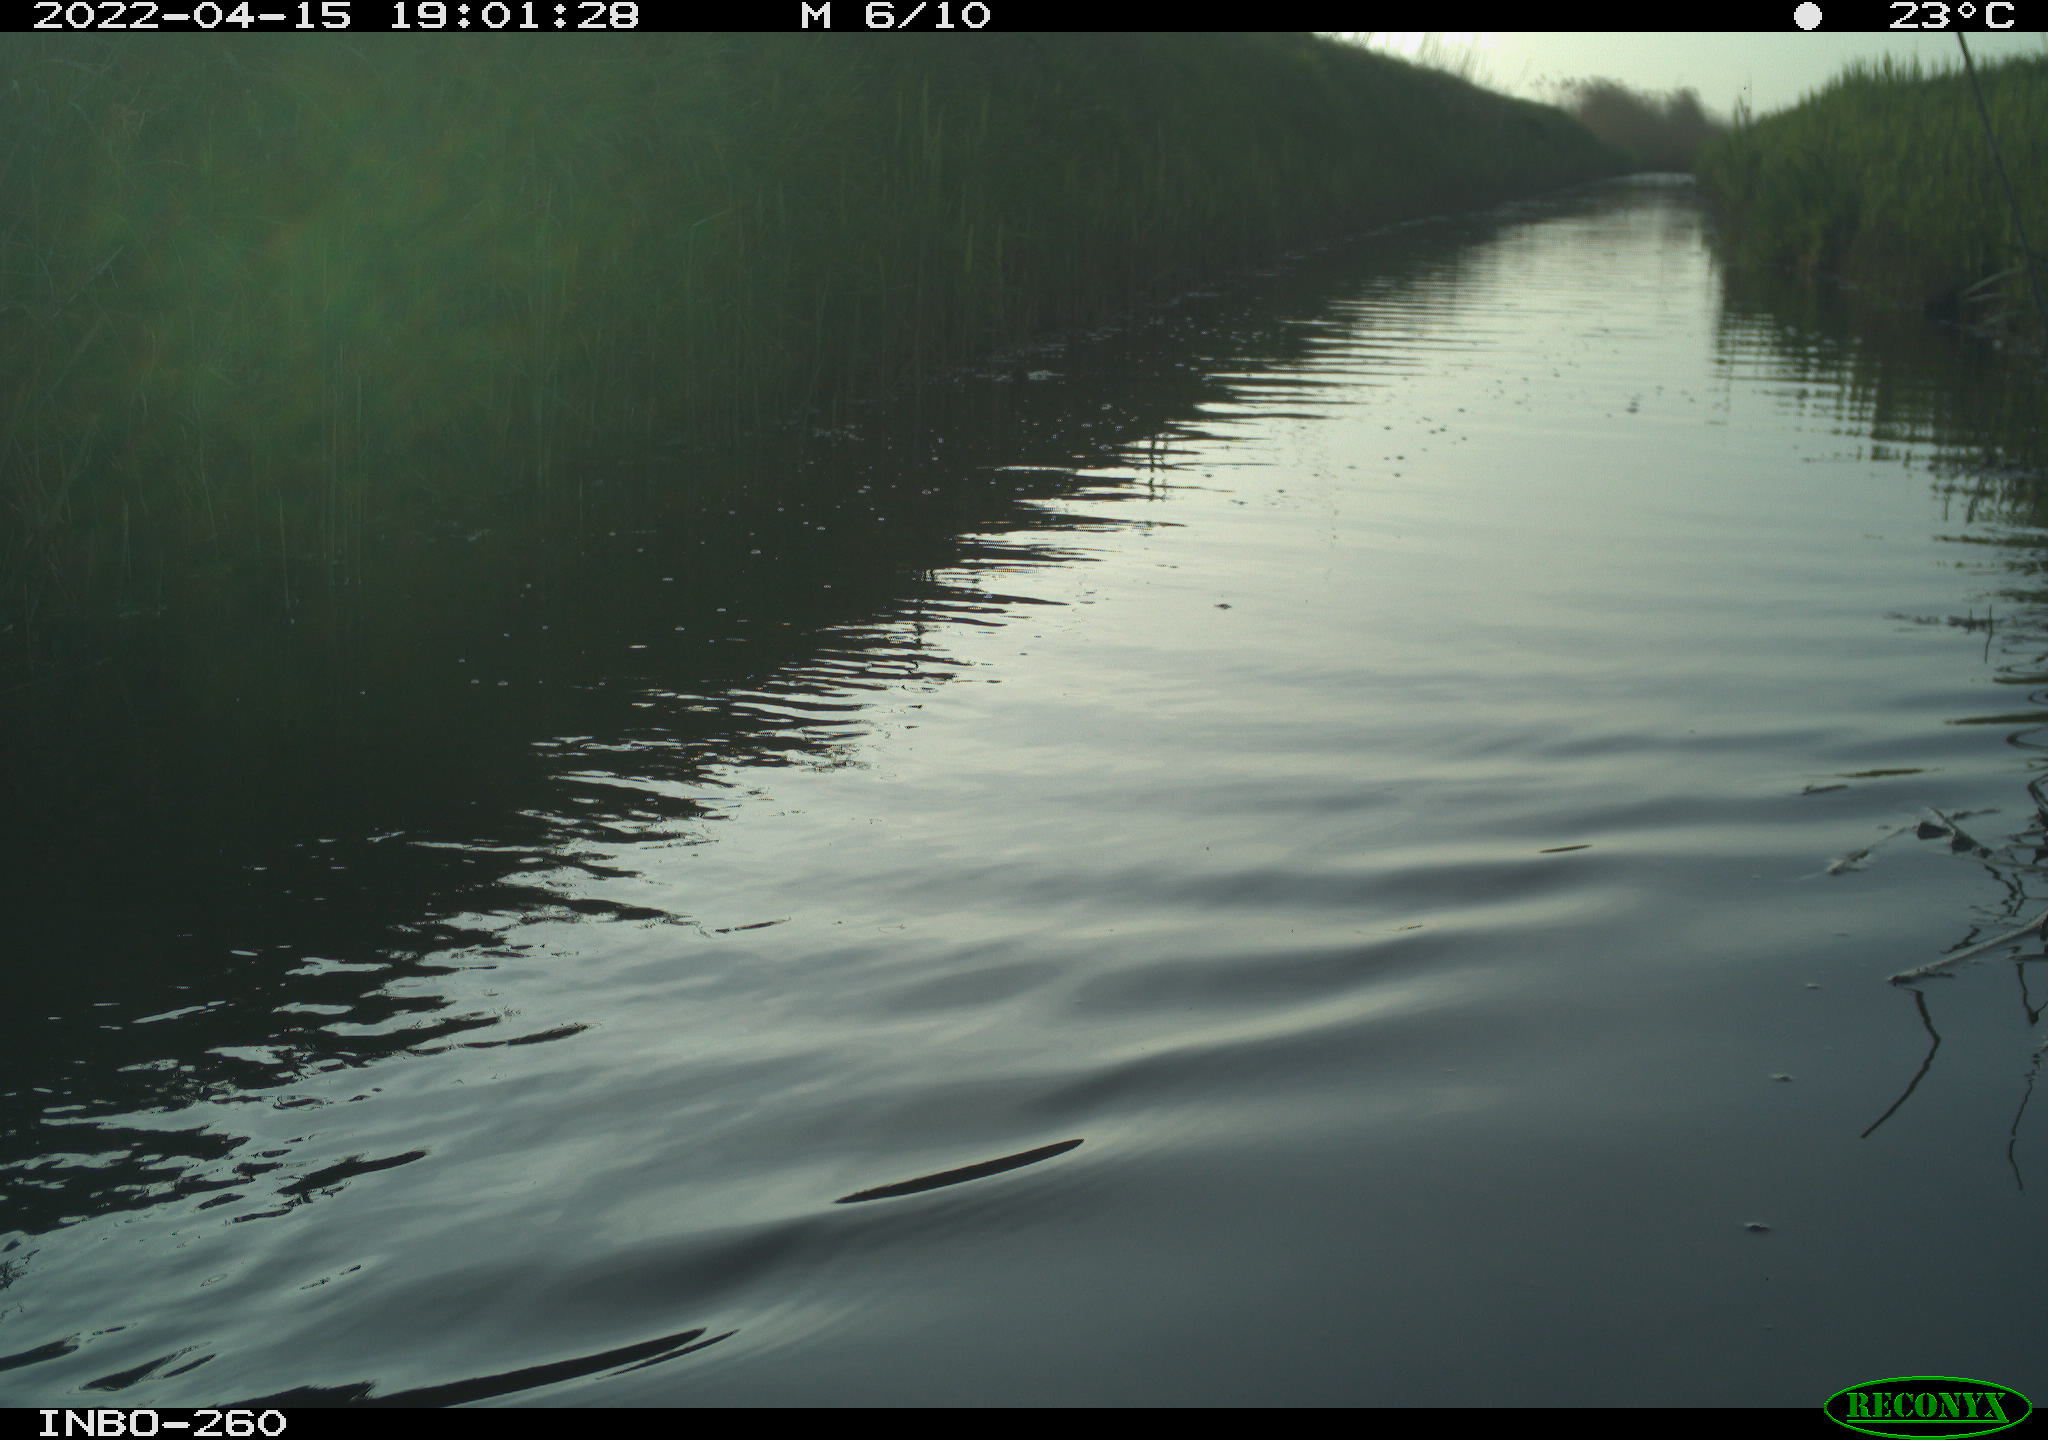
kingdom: Animalia
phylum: Chordata
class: Aves
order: Gruiformes
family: Rallidae
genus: Fulica
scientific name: Fulica atra
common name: Eurasian coot
